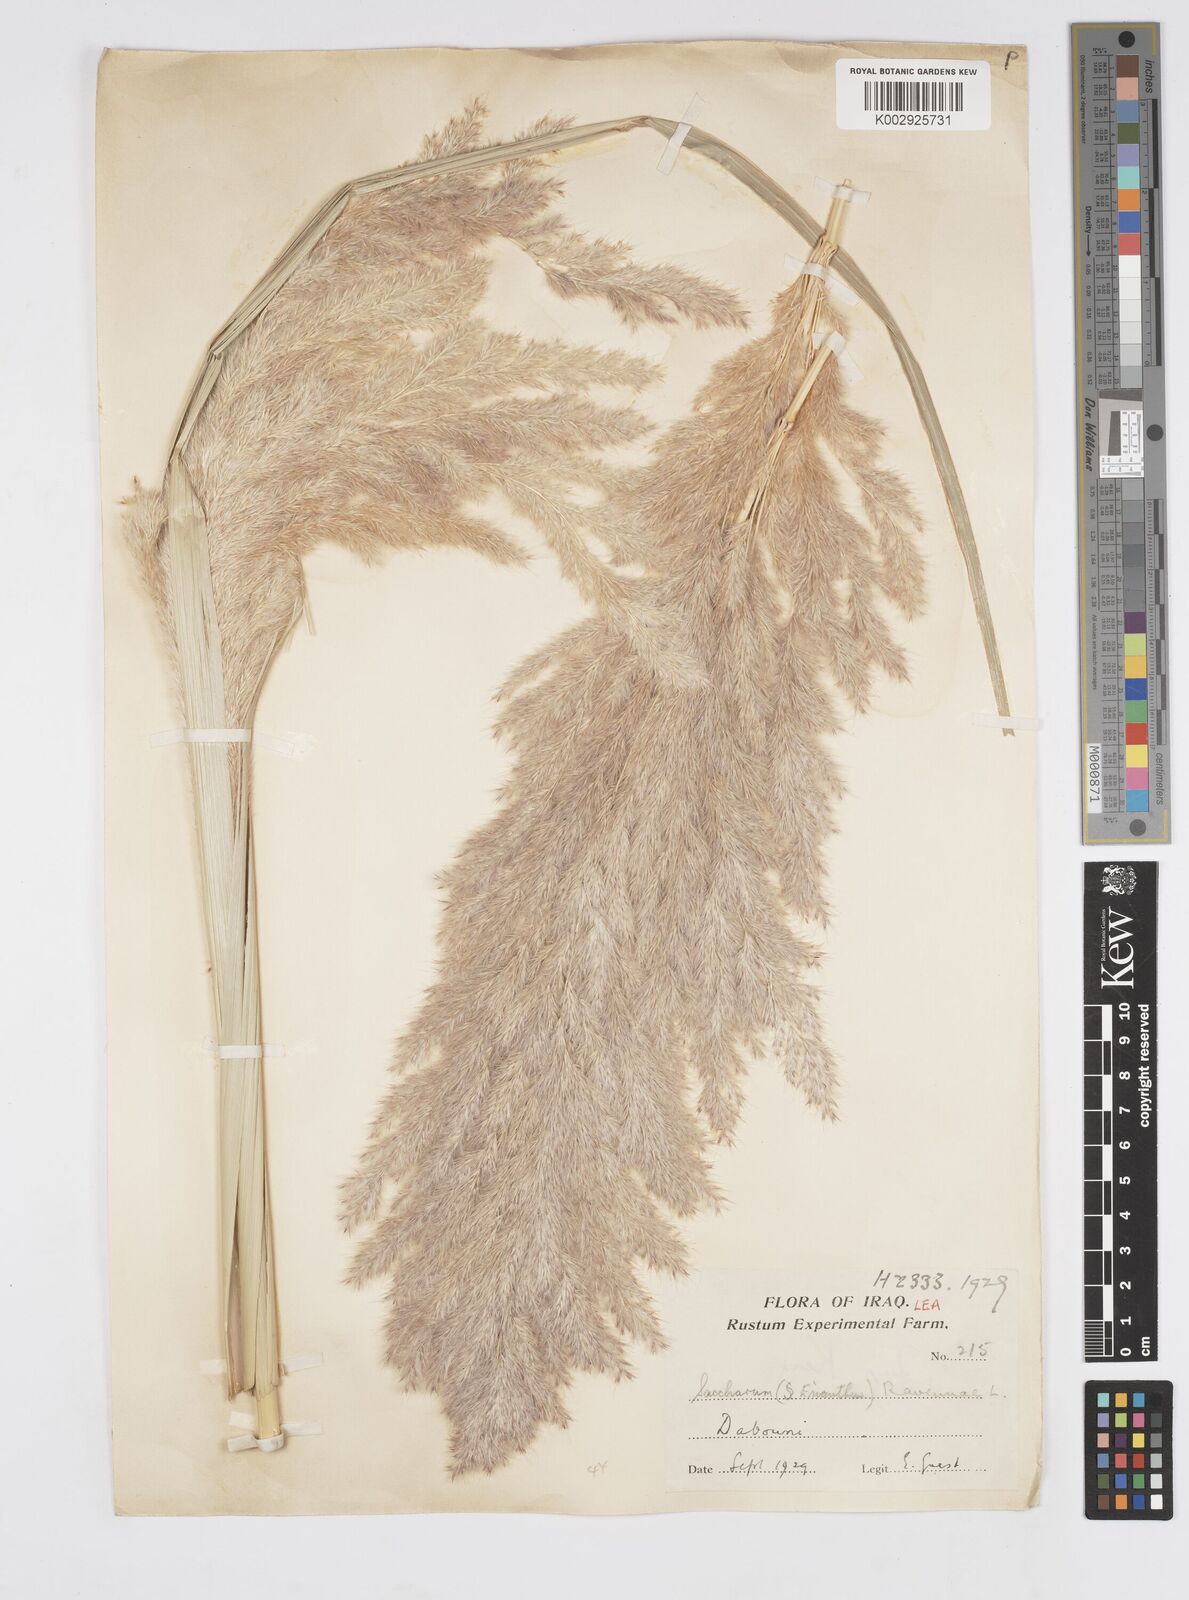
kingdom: Plantae
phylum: Tracheophyta
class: Liliopsida
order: Poales
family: Poaceae
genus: Tripidium
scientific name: Tripidium ravennae
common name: Ravenna grass
